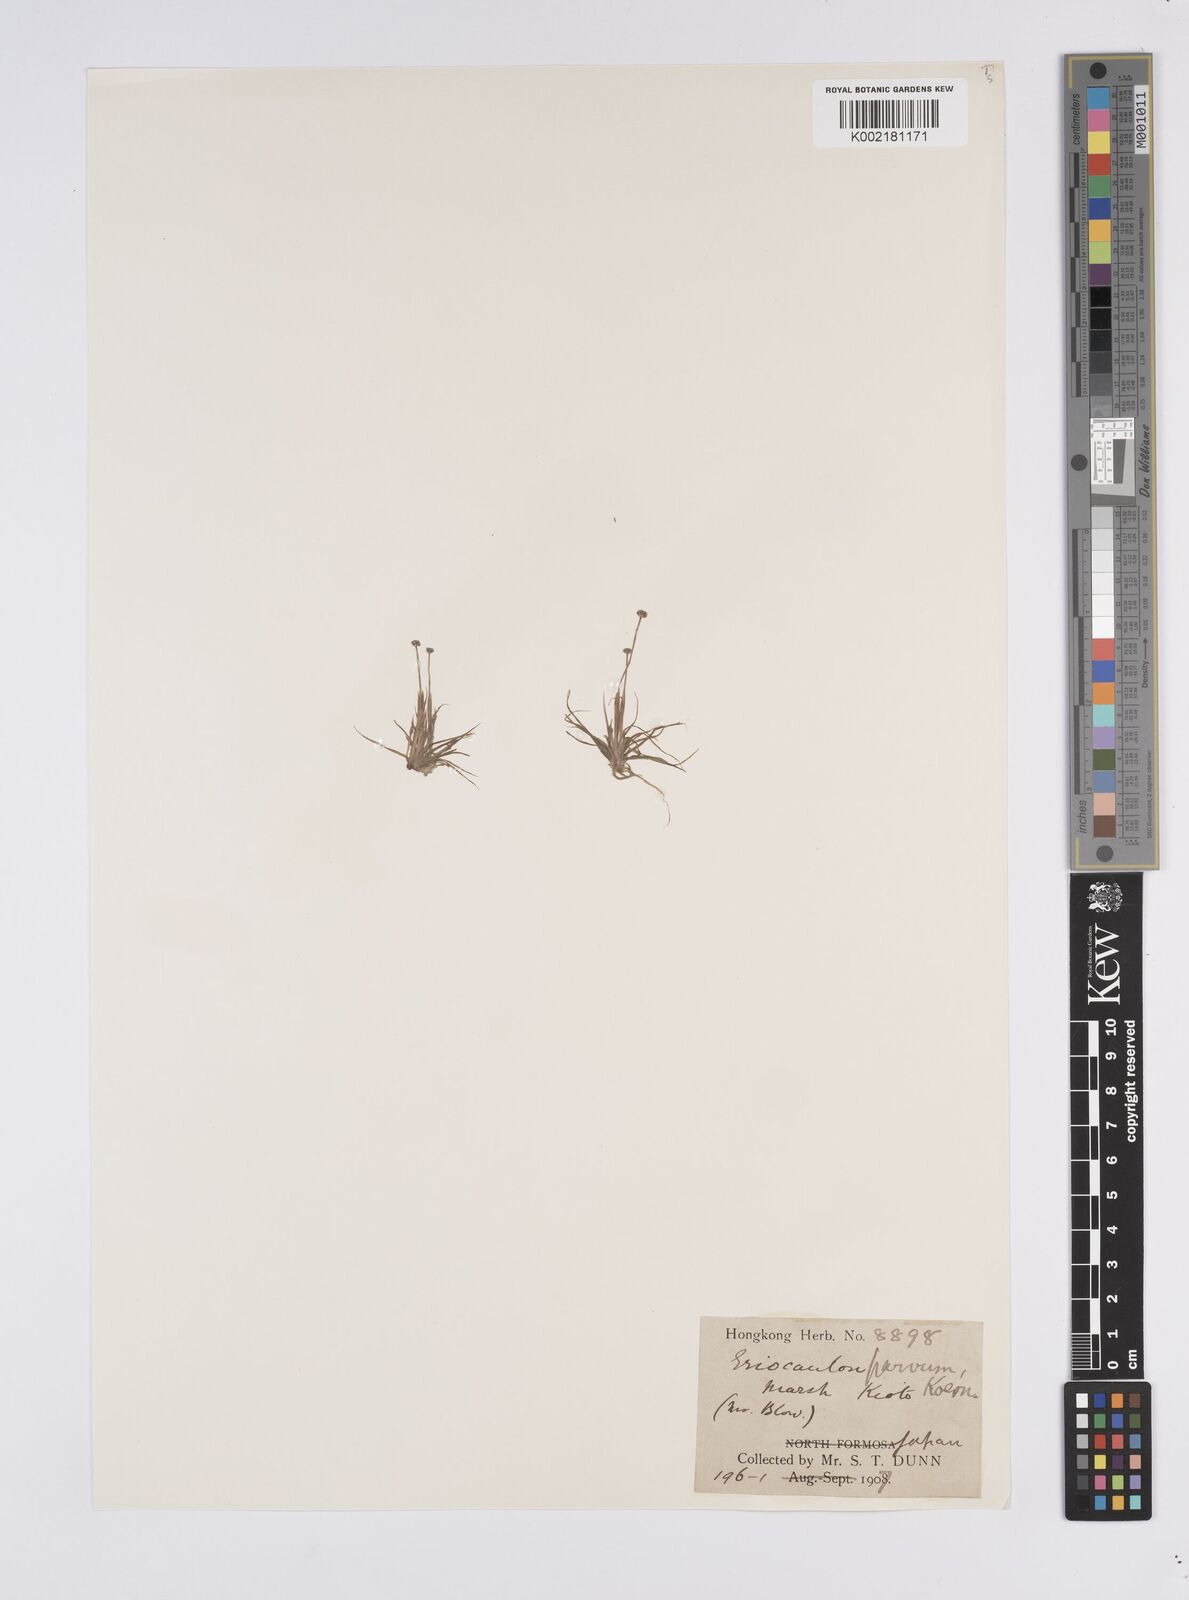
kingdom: Plantae
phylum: Tracheophyta
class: Liliopsida
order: Poales
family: Eriocaulaceae
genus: Eriocaulon
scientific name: Eriocaulon parvum
